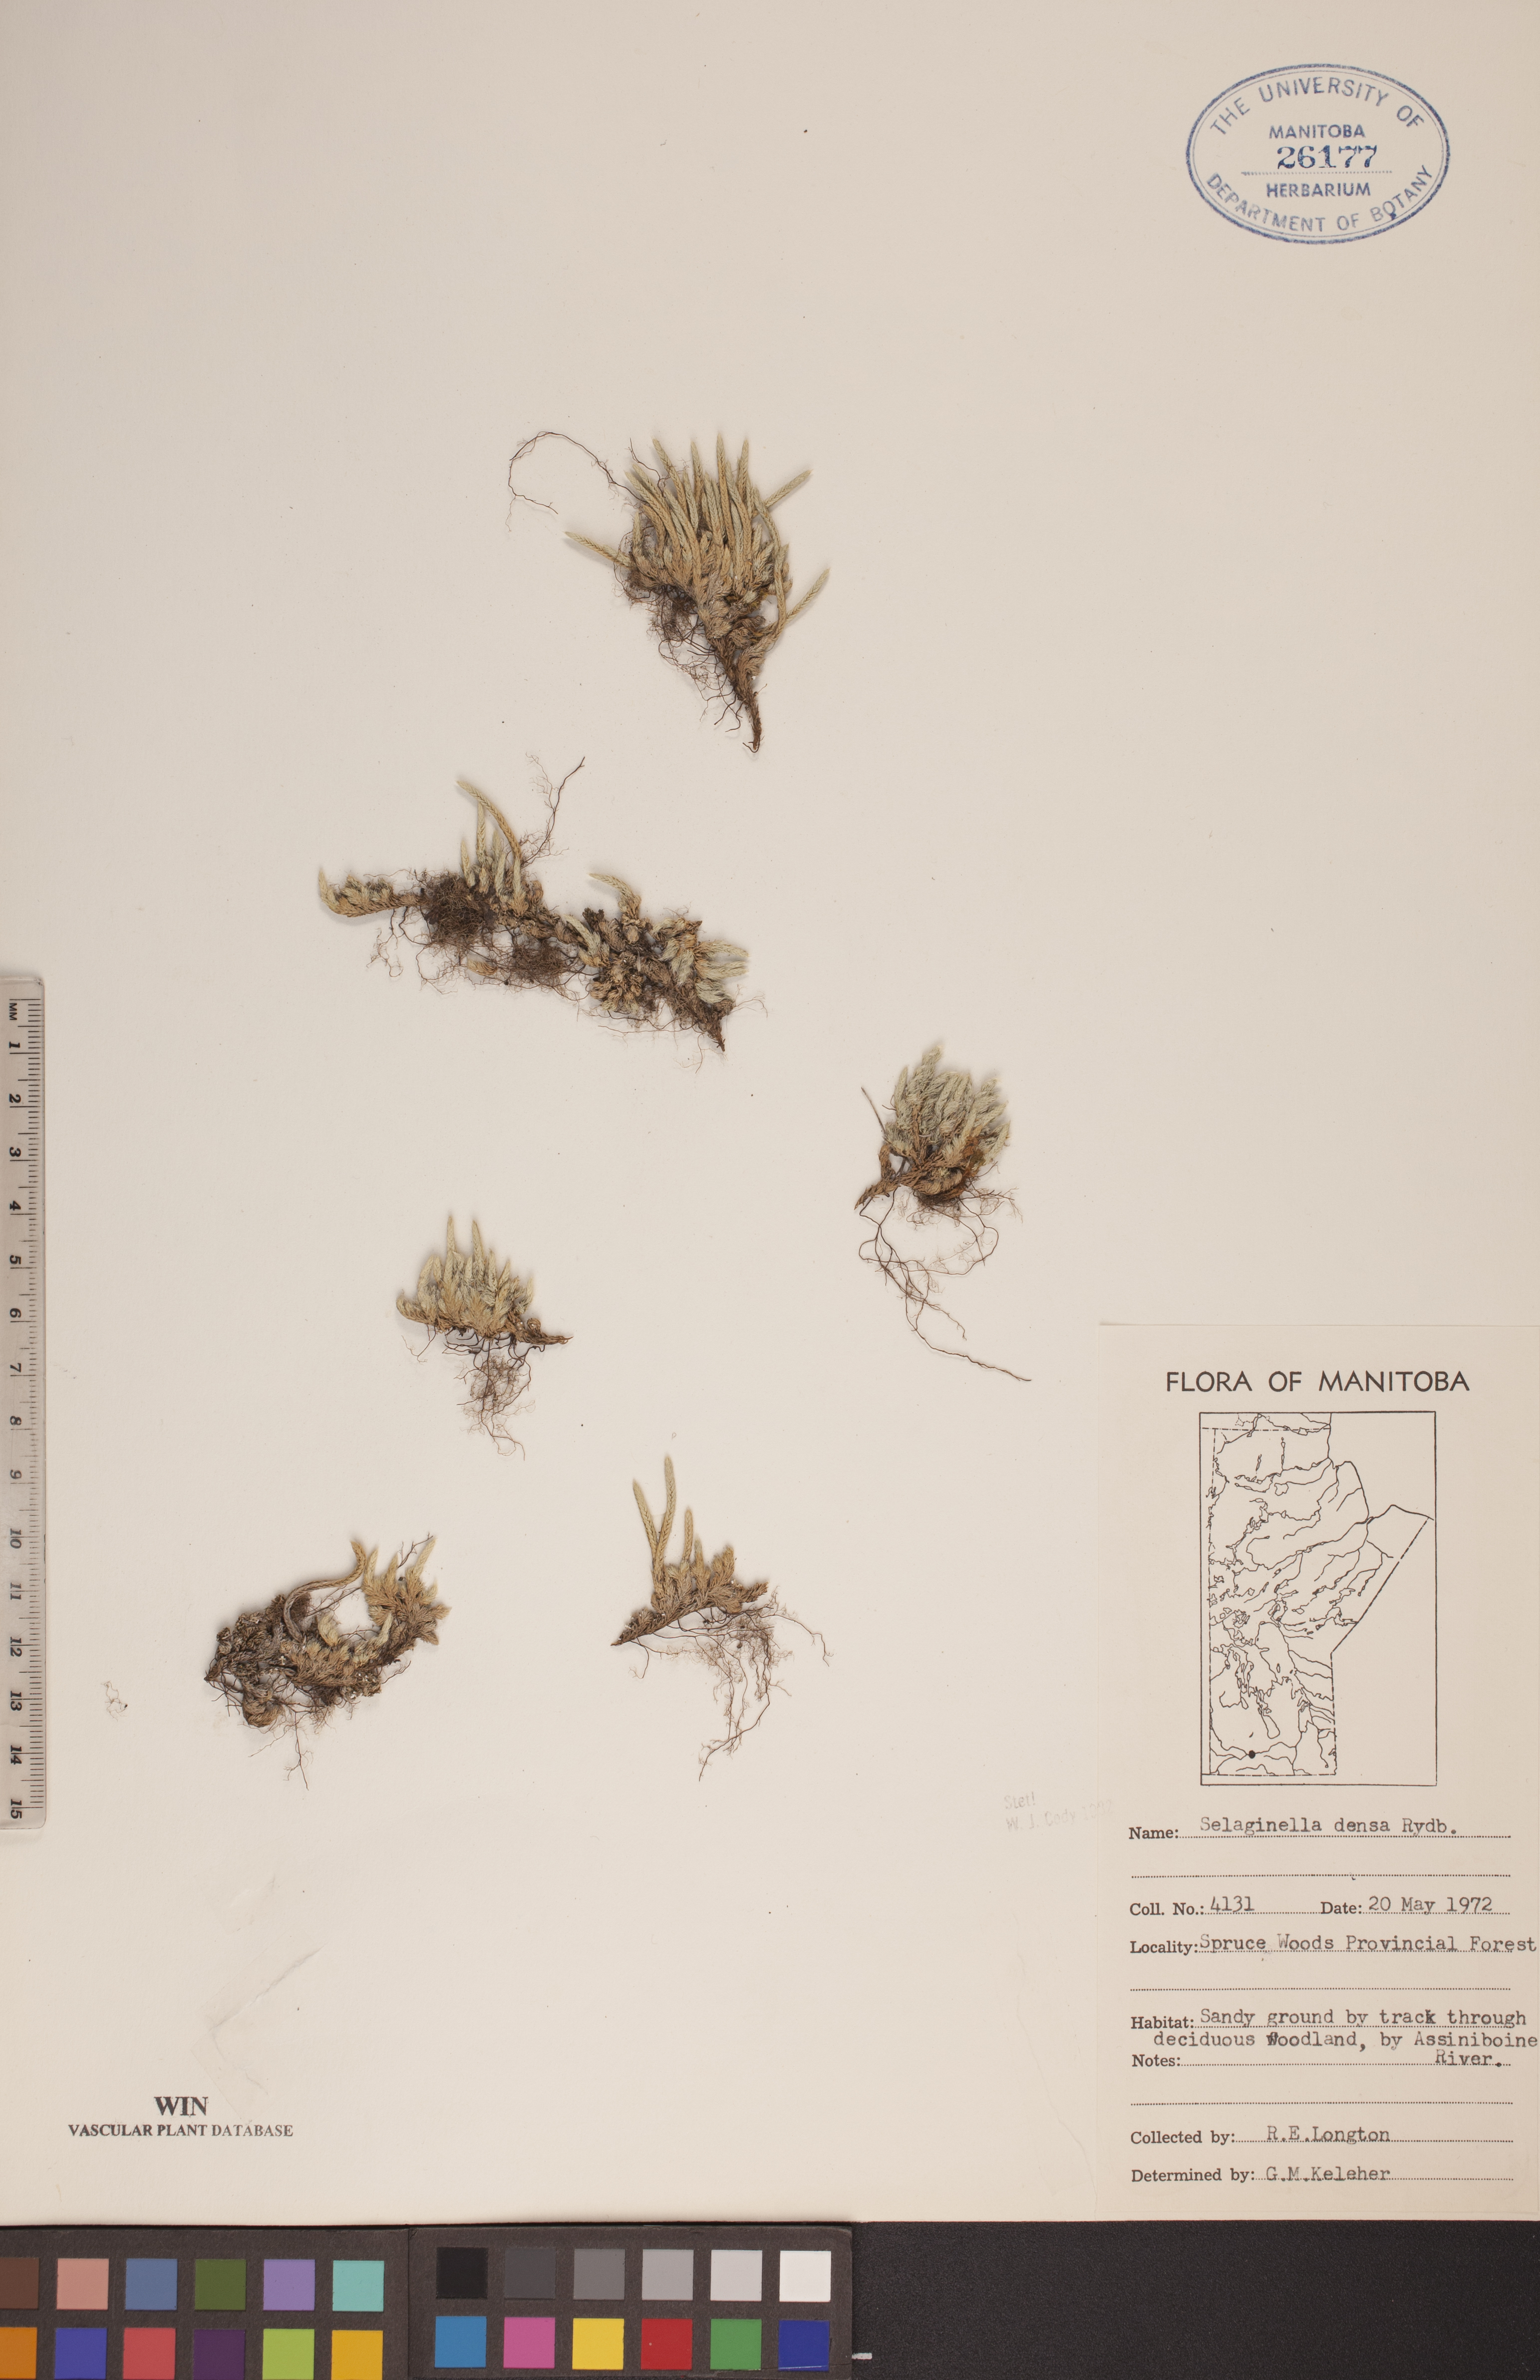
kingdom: Plantae
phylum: Tracheophyta
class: Lycopodiopsida
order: Selaginellales
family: Selaginellaceae
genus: Selaginella
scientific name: Selaginella densa
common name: Mountain spike-moss
